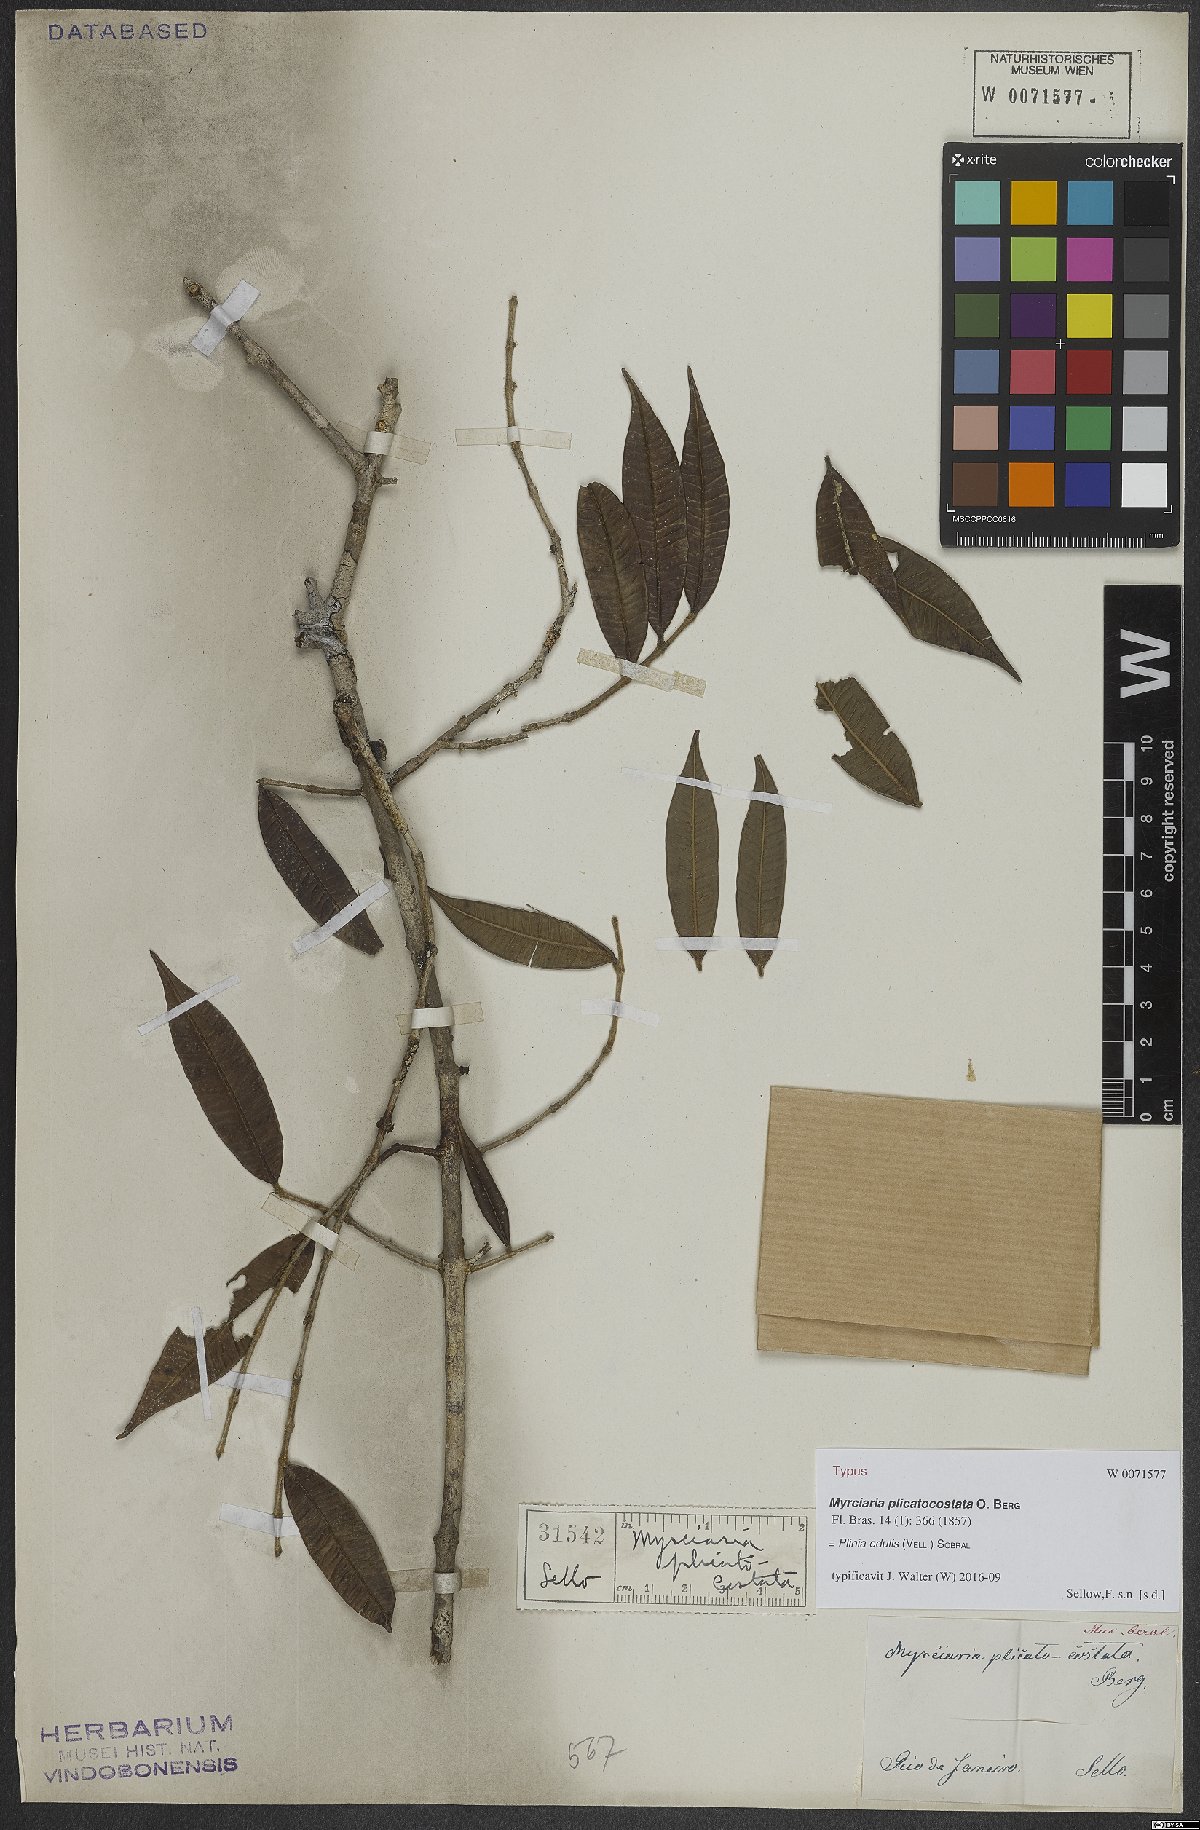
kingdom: Plantae
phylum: Tracheophyta
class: Magnoliopsida
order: Myrtales
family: Myrtaceae
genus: Plinia
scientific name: Plinia edulis
